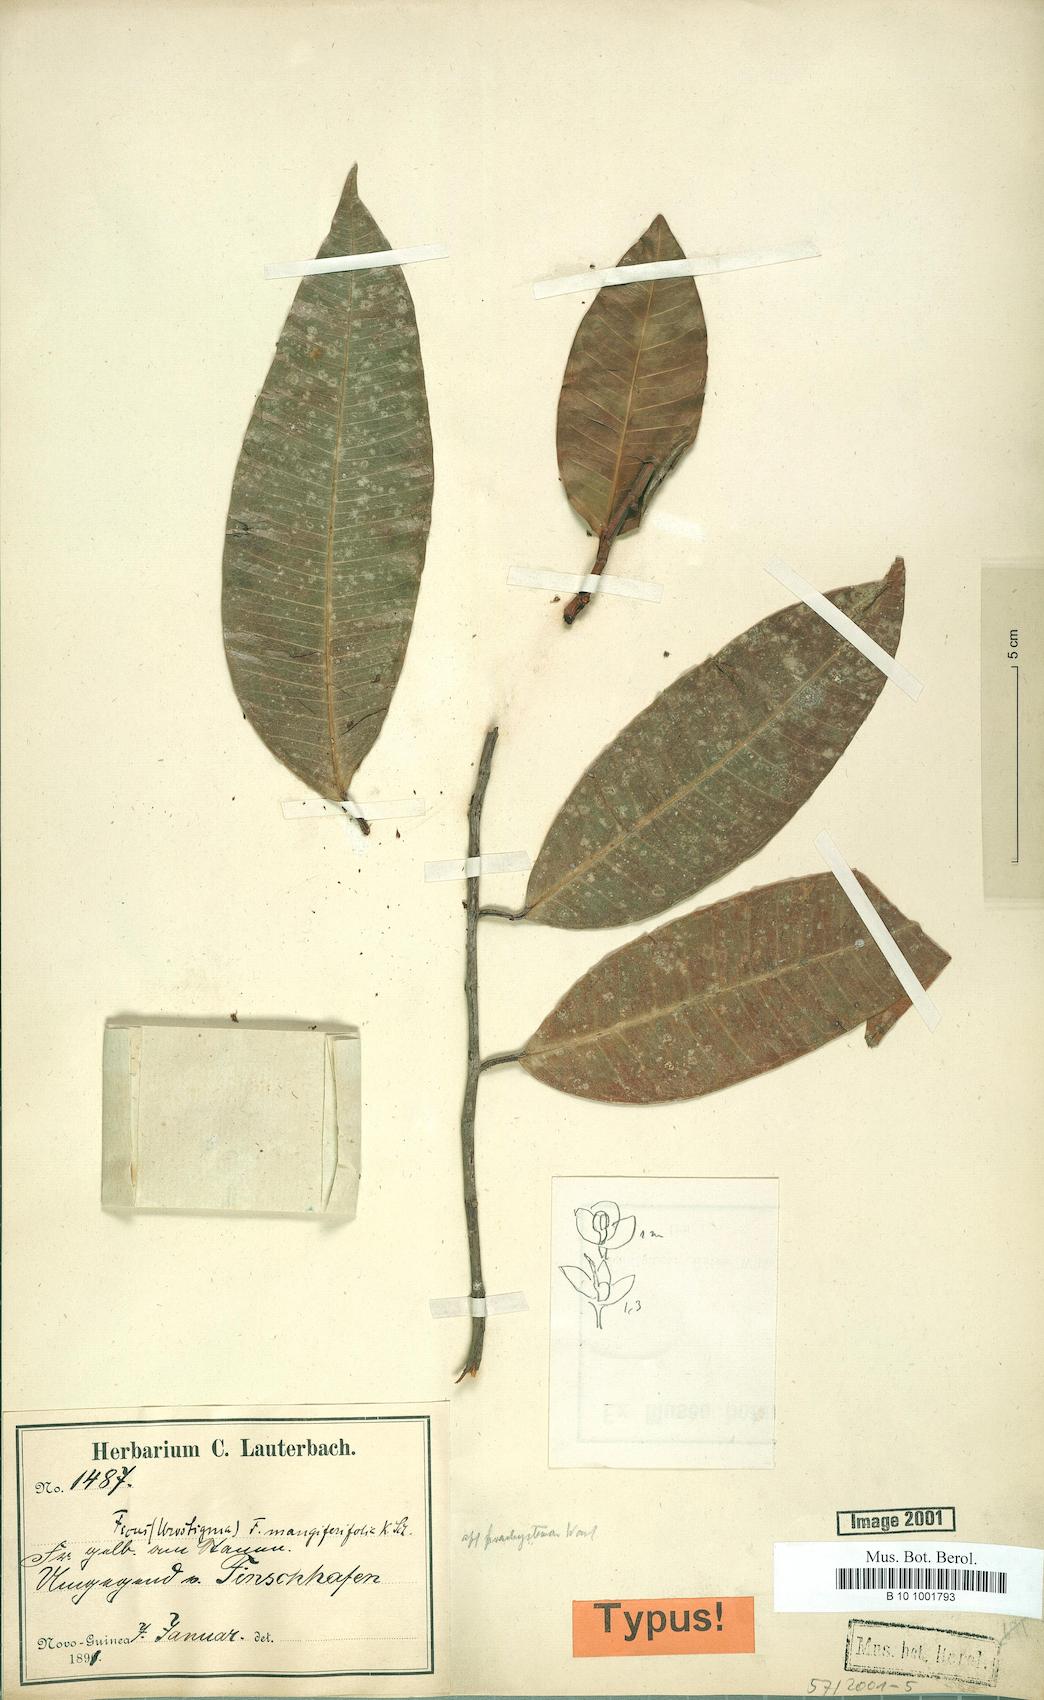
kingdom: Plantae
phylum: Tracheophyta
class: Magnoliopsida
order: Rosales
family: Moraceae
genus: Ficus
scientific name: Ficus subtrinervia
